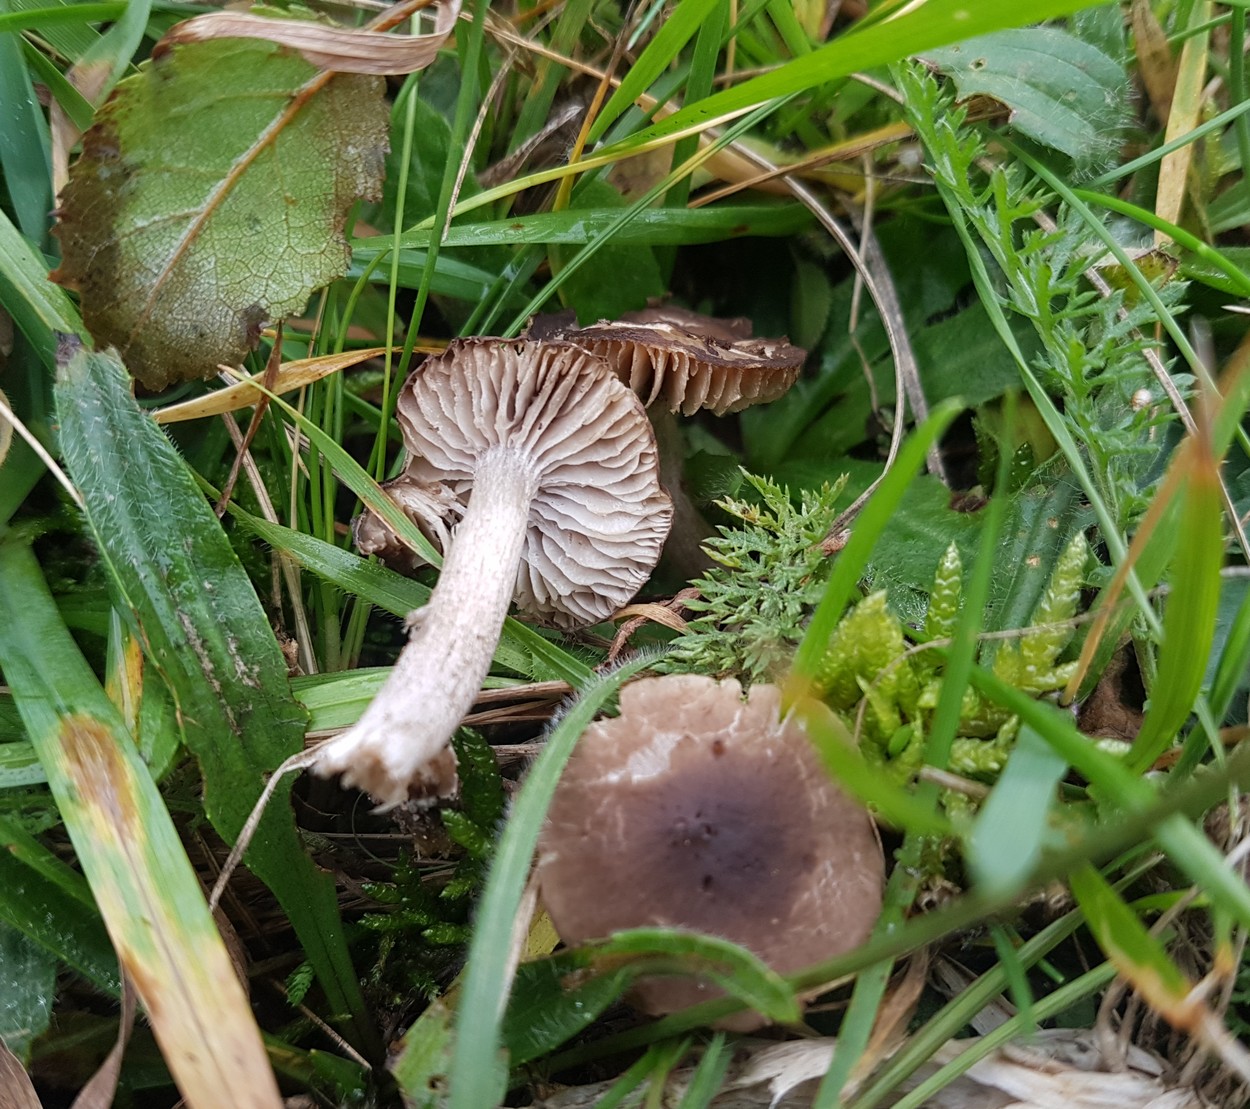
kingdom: Fungi
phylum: Basidiomycota
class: Agaricomycetes
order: Agaricales
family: Hygrophoraceae
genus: Neohygrocybe
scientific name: Neohygrocybe nitrata
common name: stinkende vokshat
